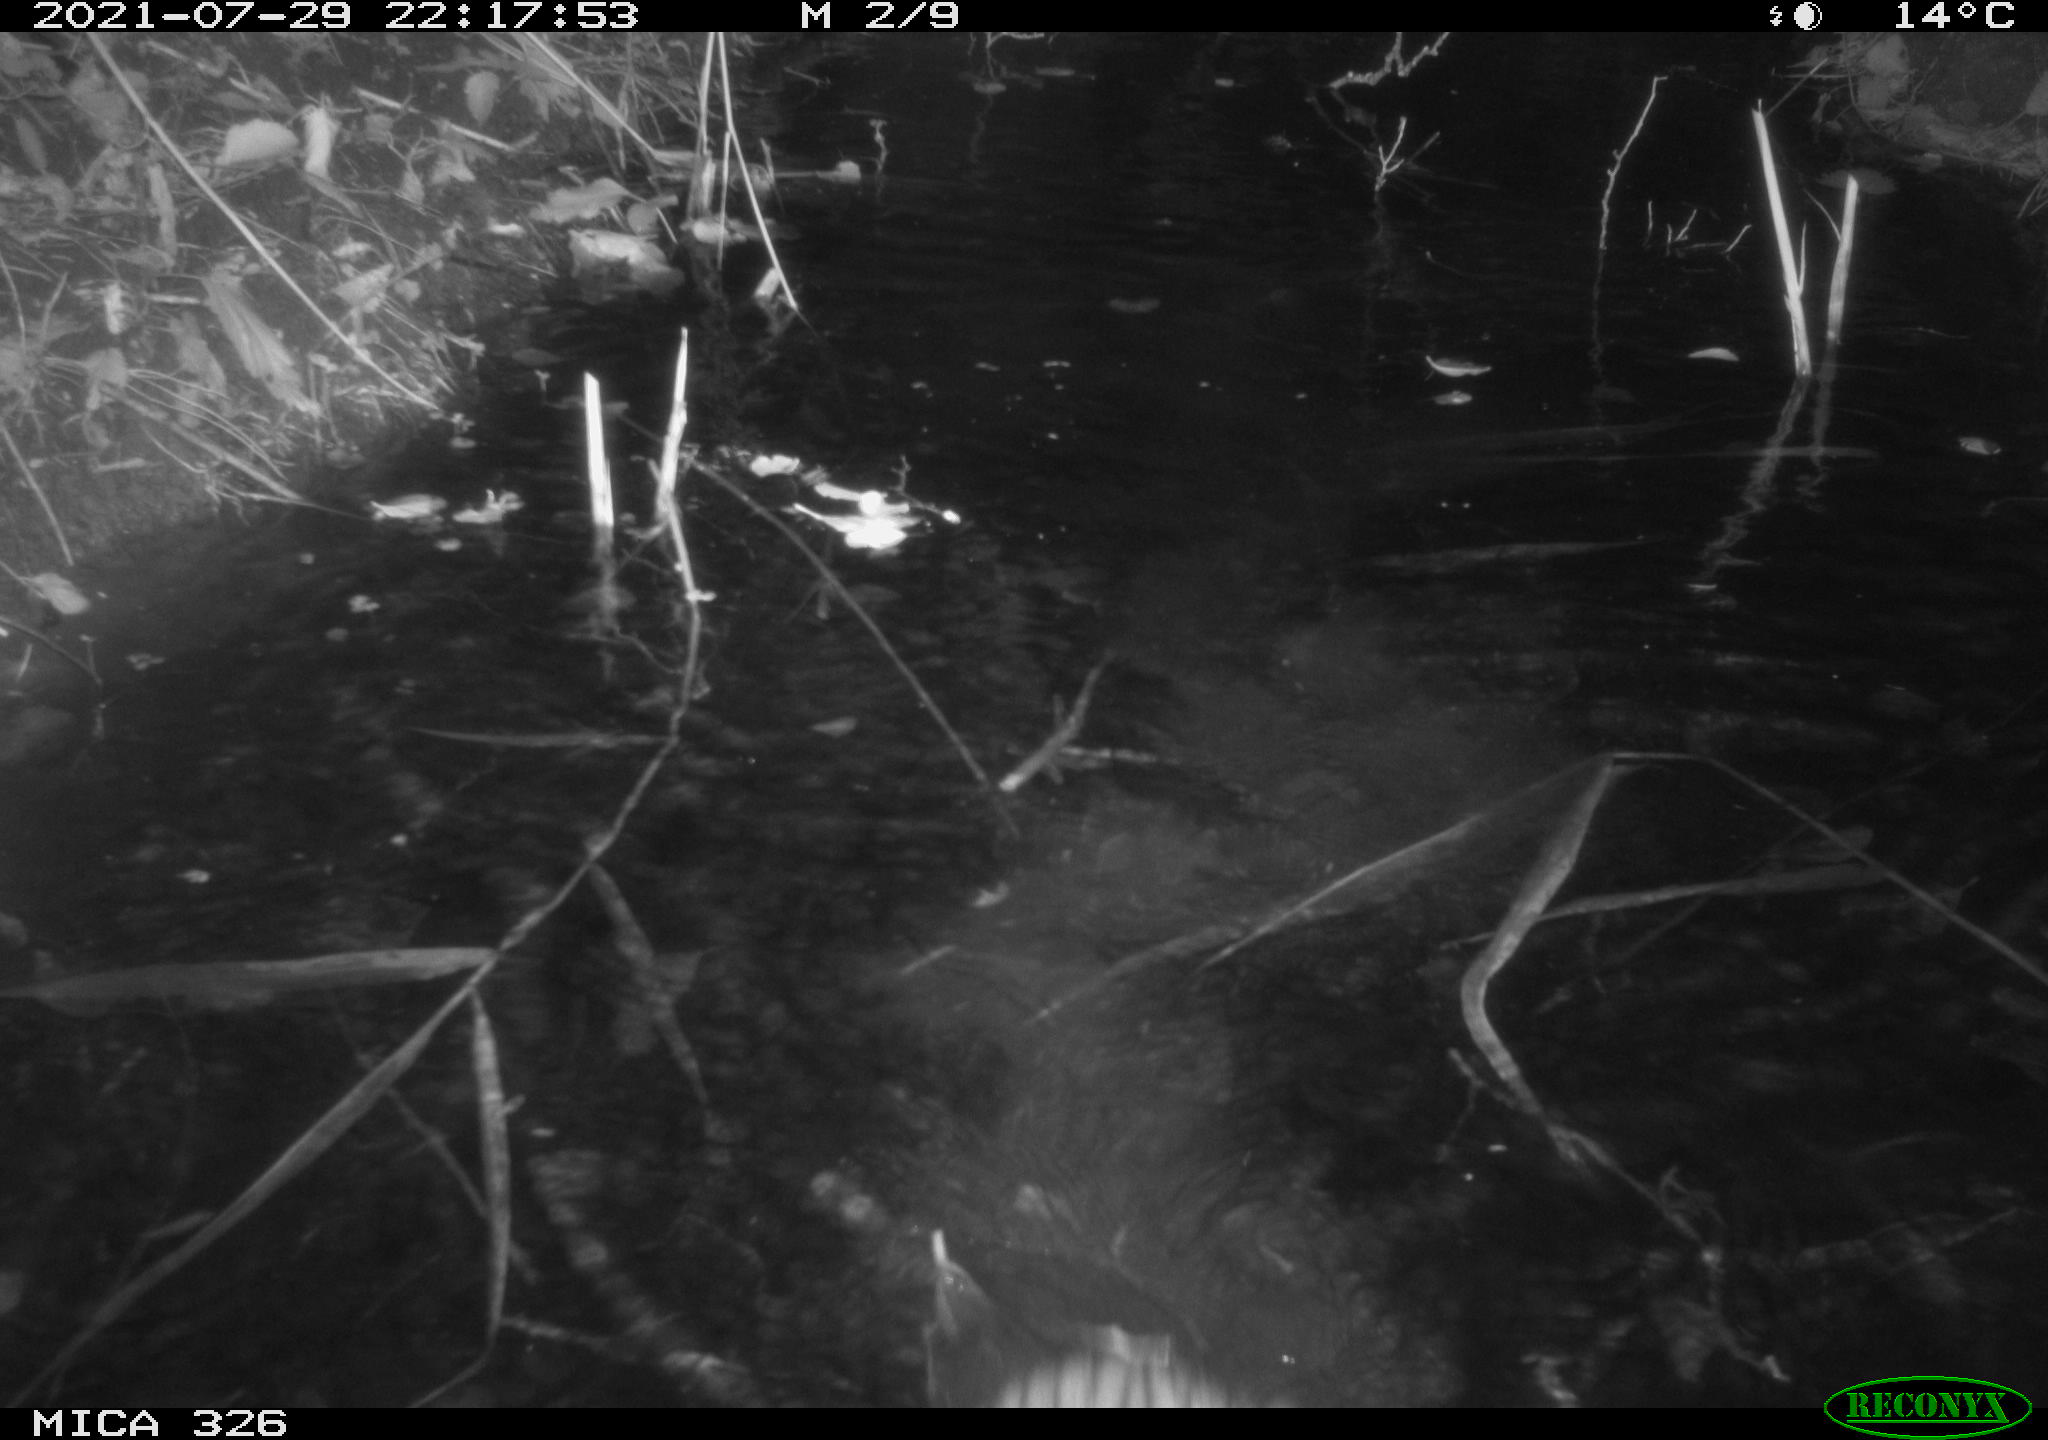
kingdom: Animalia
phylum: Chordata
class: Mammalia
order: Rodentia
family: Myocastoridae
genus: Myocastor
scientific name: Myocastor coypus
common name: Coypu
